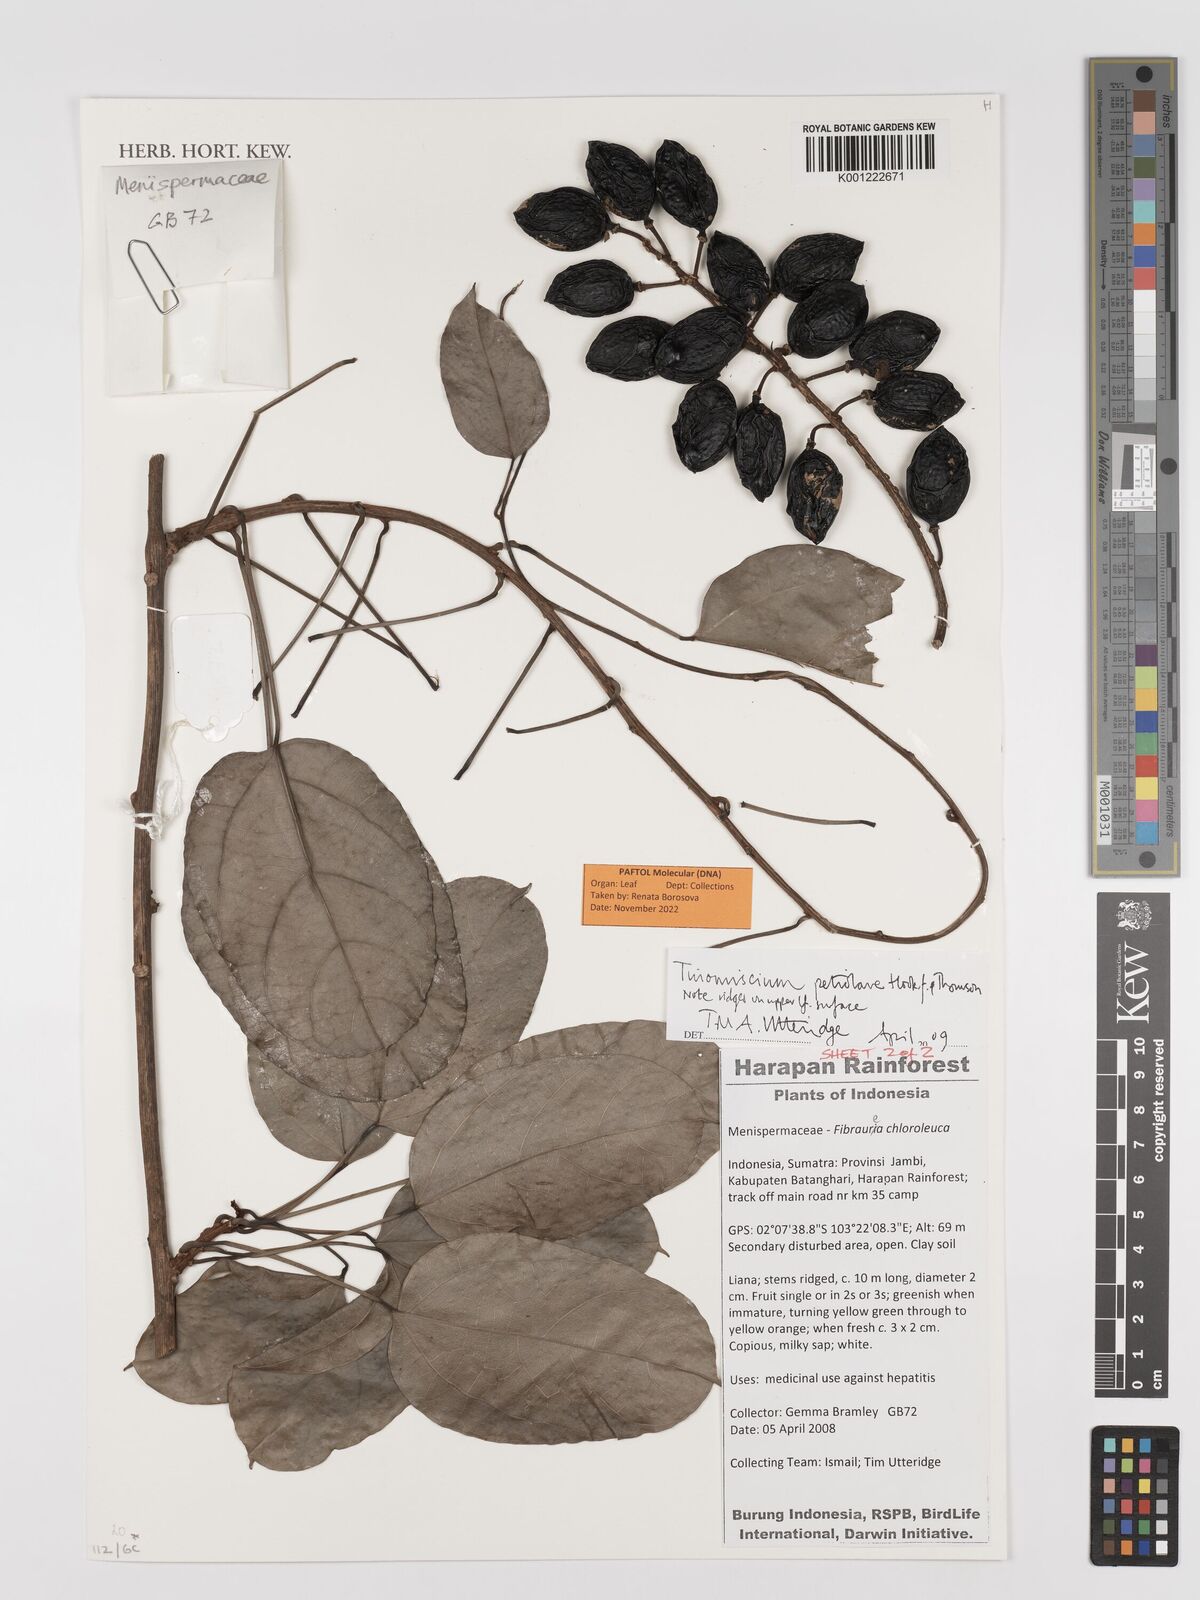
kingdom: Plantae
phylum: Tracheophyta
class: Magnoliopsida
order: Ranunculales
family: Menispermaceae
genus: Tinomiscium
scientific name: Tinomiscium petiolare
